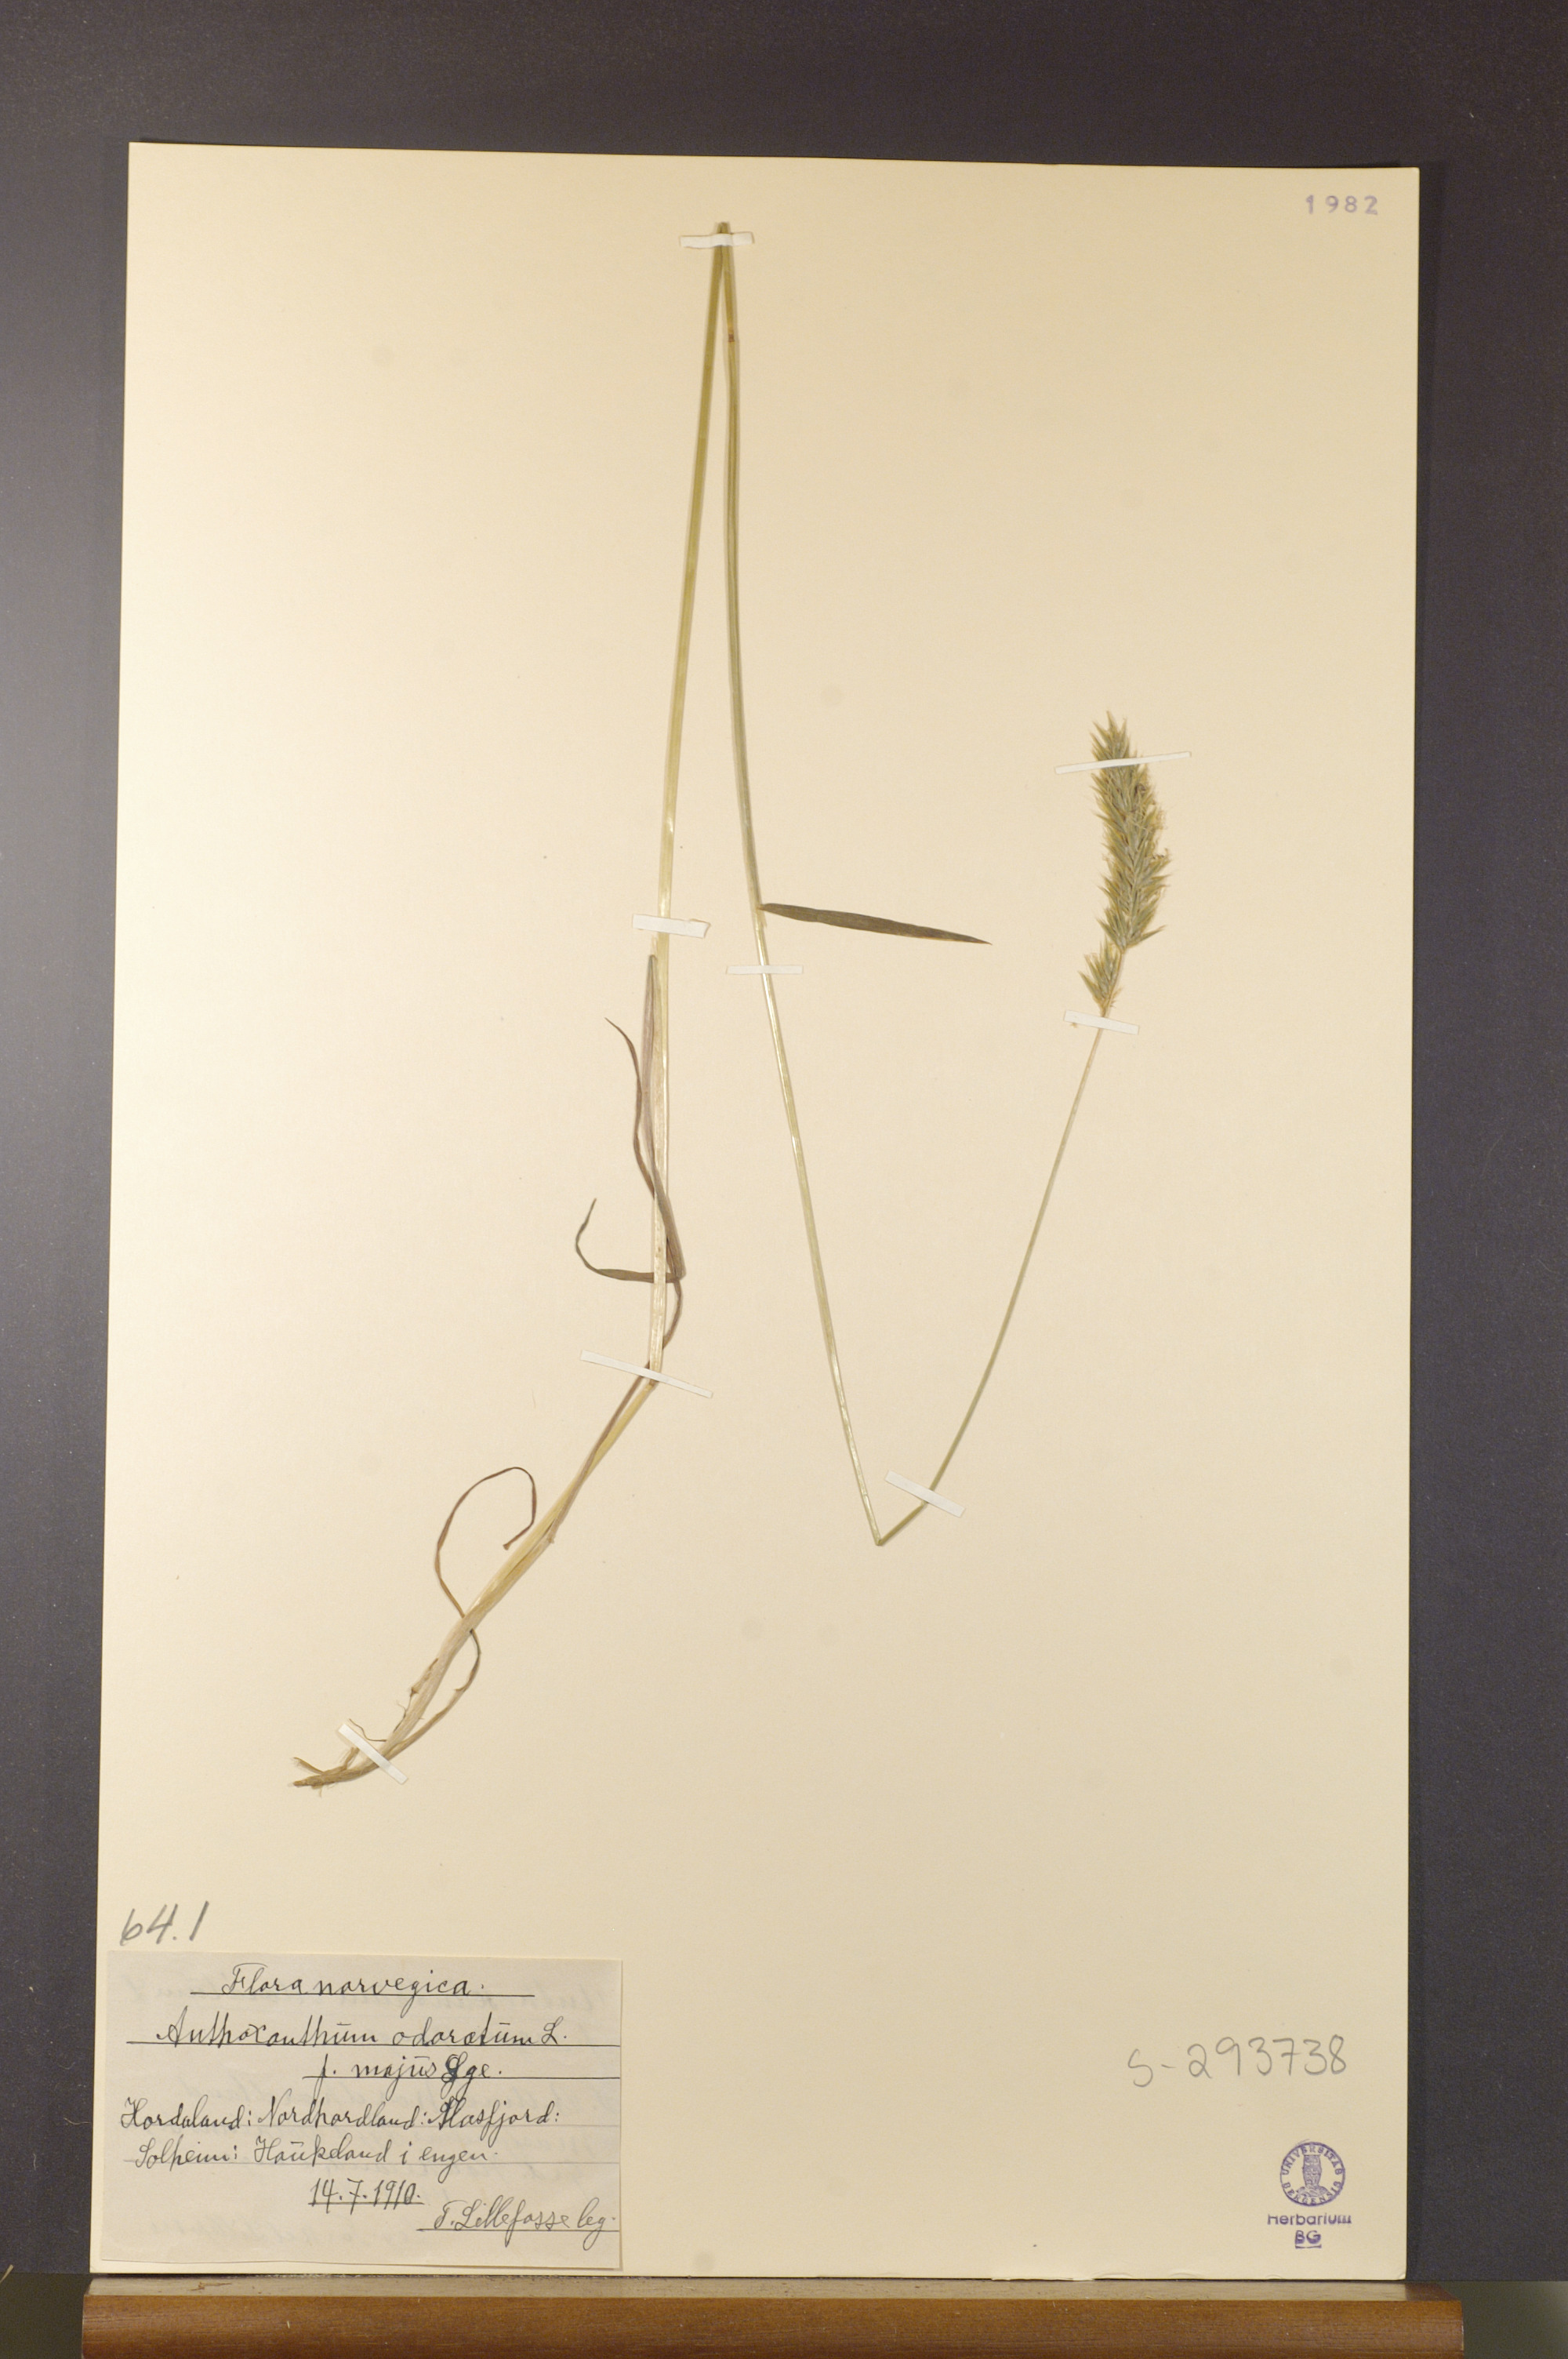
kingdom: Plantae
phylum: Tracheophyta
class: Liliopsida
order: Poales
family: Poaceae
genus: Anthoxanthum
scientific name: Anthoxanthum odoratum
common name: Sweet vernalgrass
